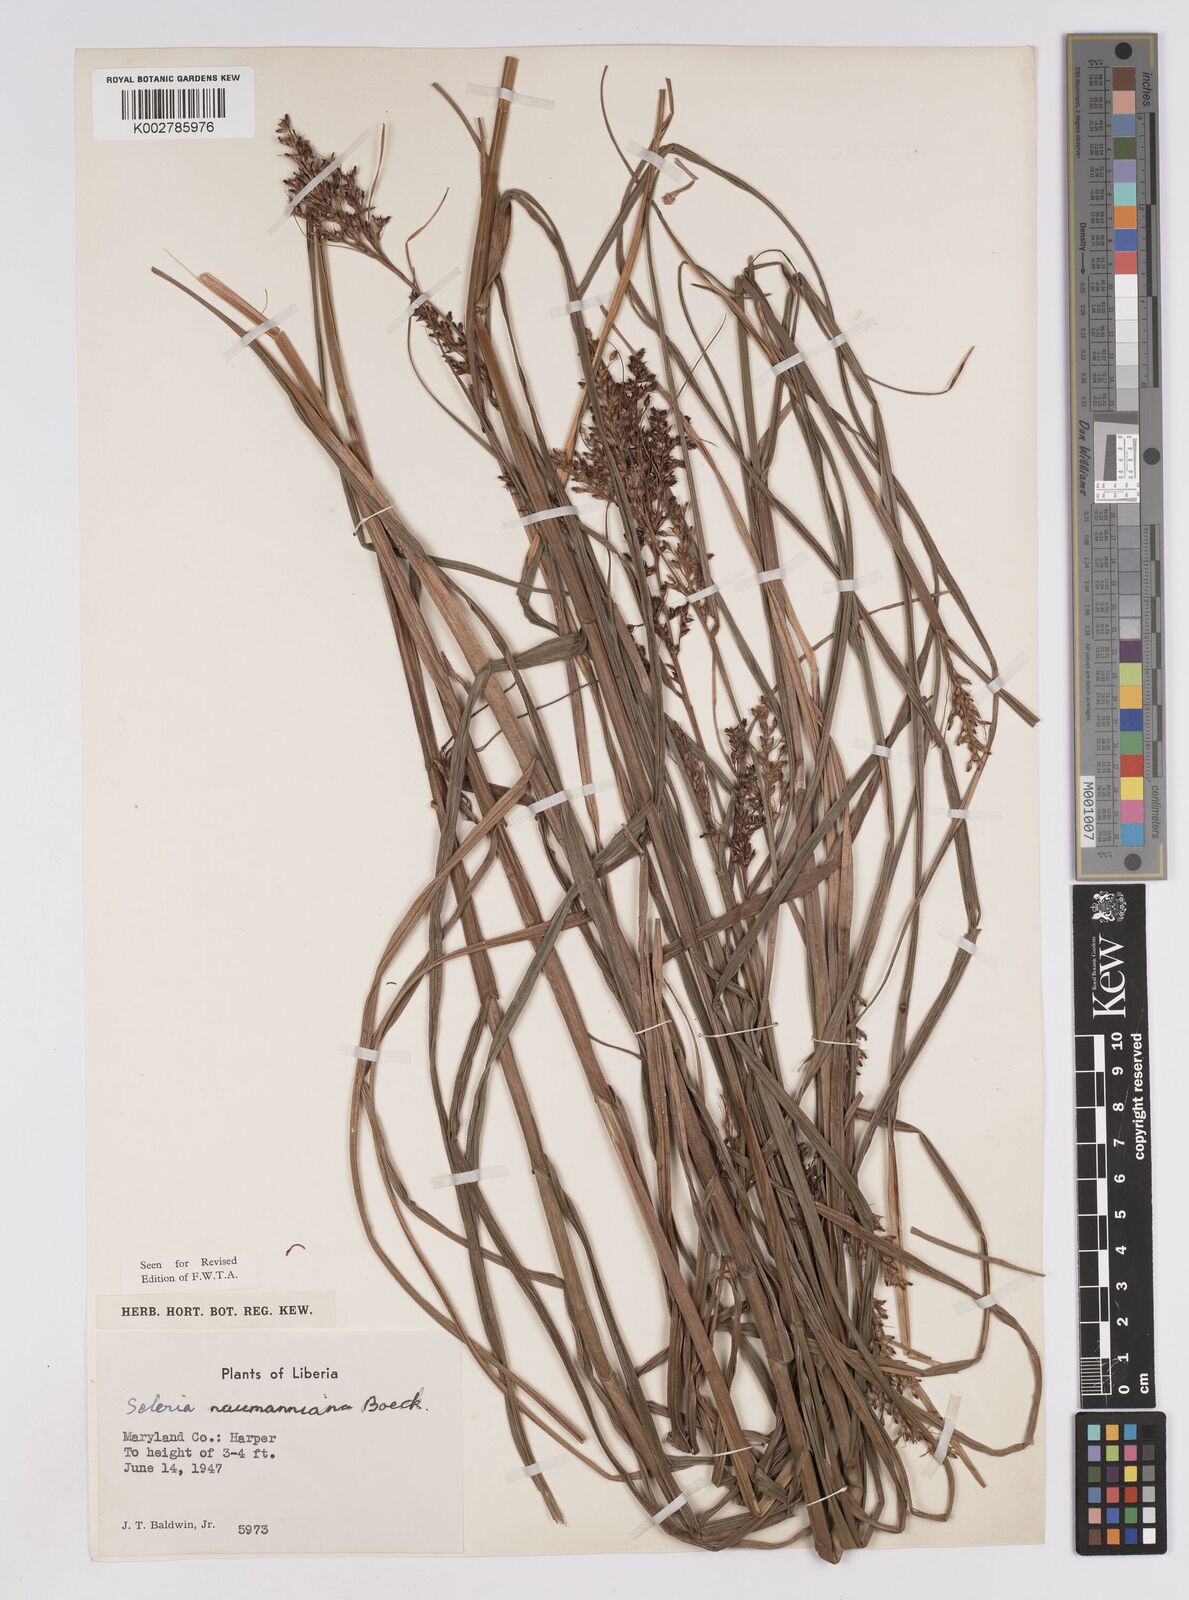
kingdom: Plantae
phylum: Tracheophyta
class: Liliopsida
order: Poales
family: Cyperaceae
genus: Scleria
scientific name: Scleria naumanniana
